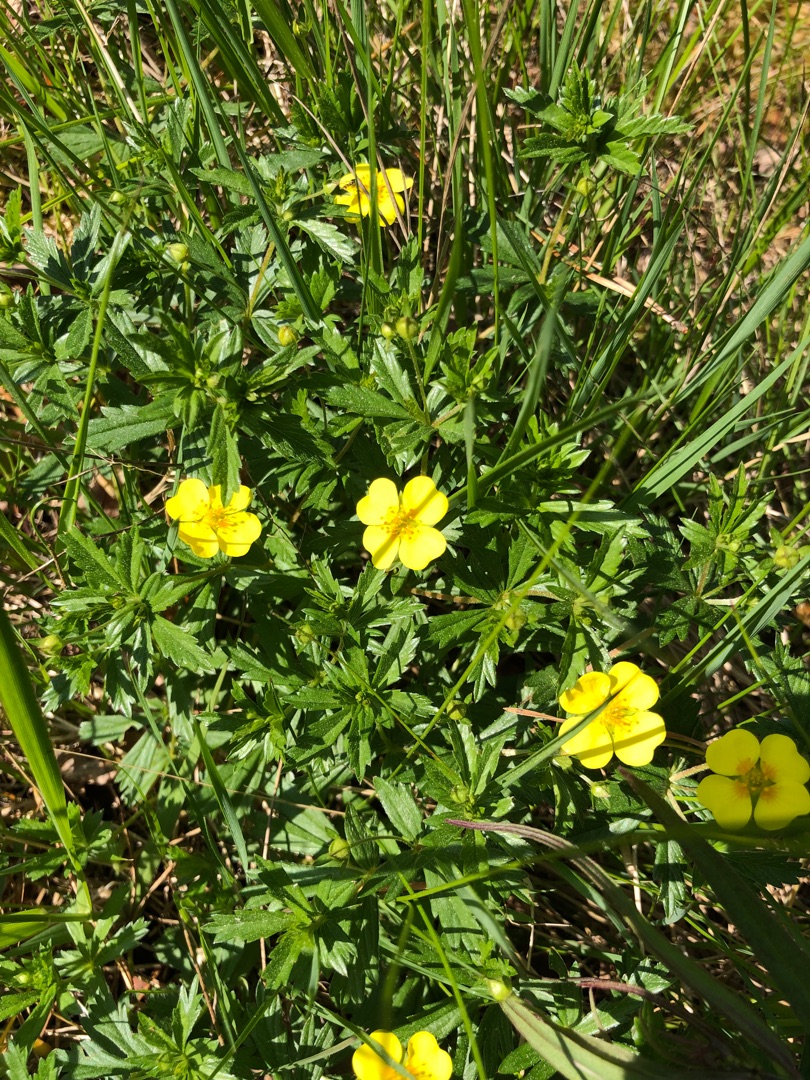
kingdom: Plantae
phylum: Tracheophyta
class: Magnoliopsida
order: Rosales
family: Rosaceae
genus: Potentilla
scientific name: Potentilla erecta
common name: Tormentil
